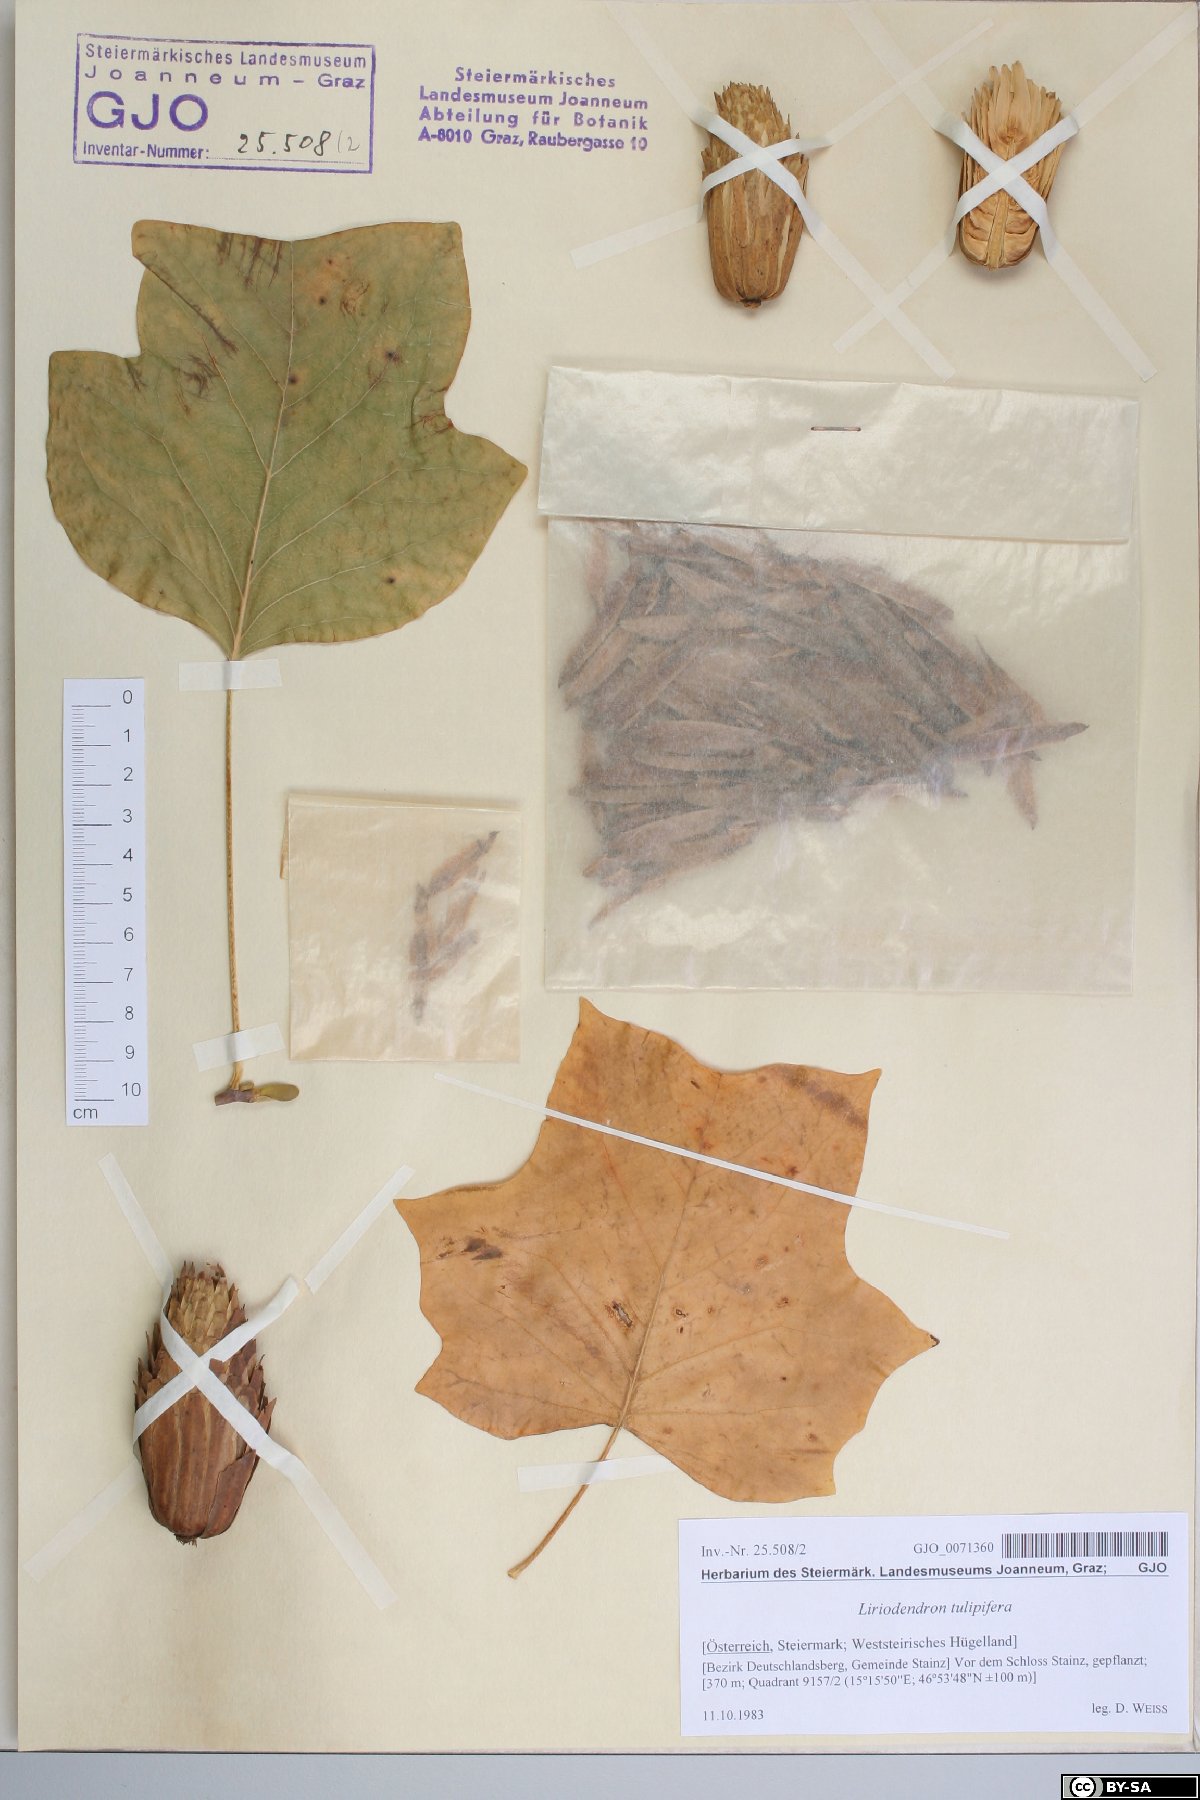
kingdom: Plantae
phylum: Tracheophyta
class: Magnoliopsida
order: Magnoliales
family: Magnoliaceae
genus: Liriodendron
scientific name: Liriodendron tulipifera
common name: Tulip tree
